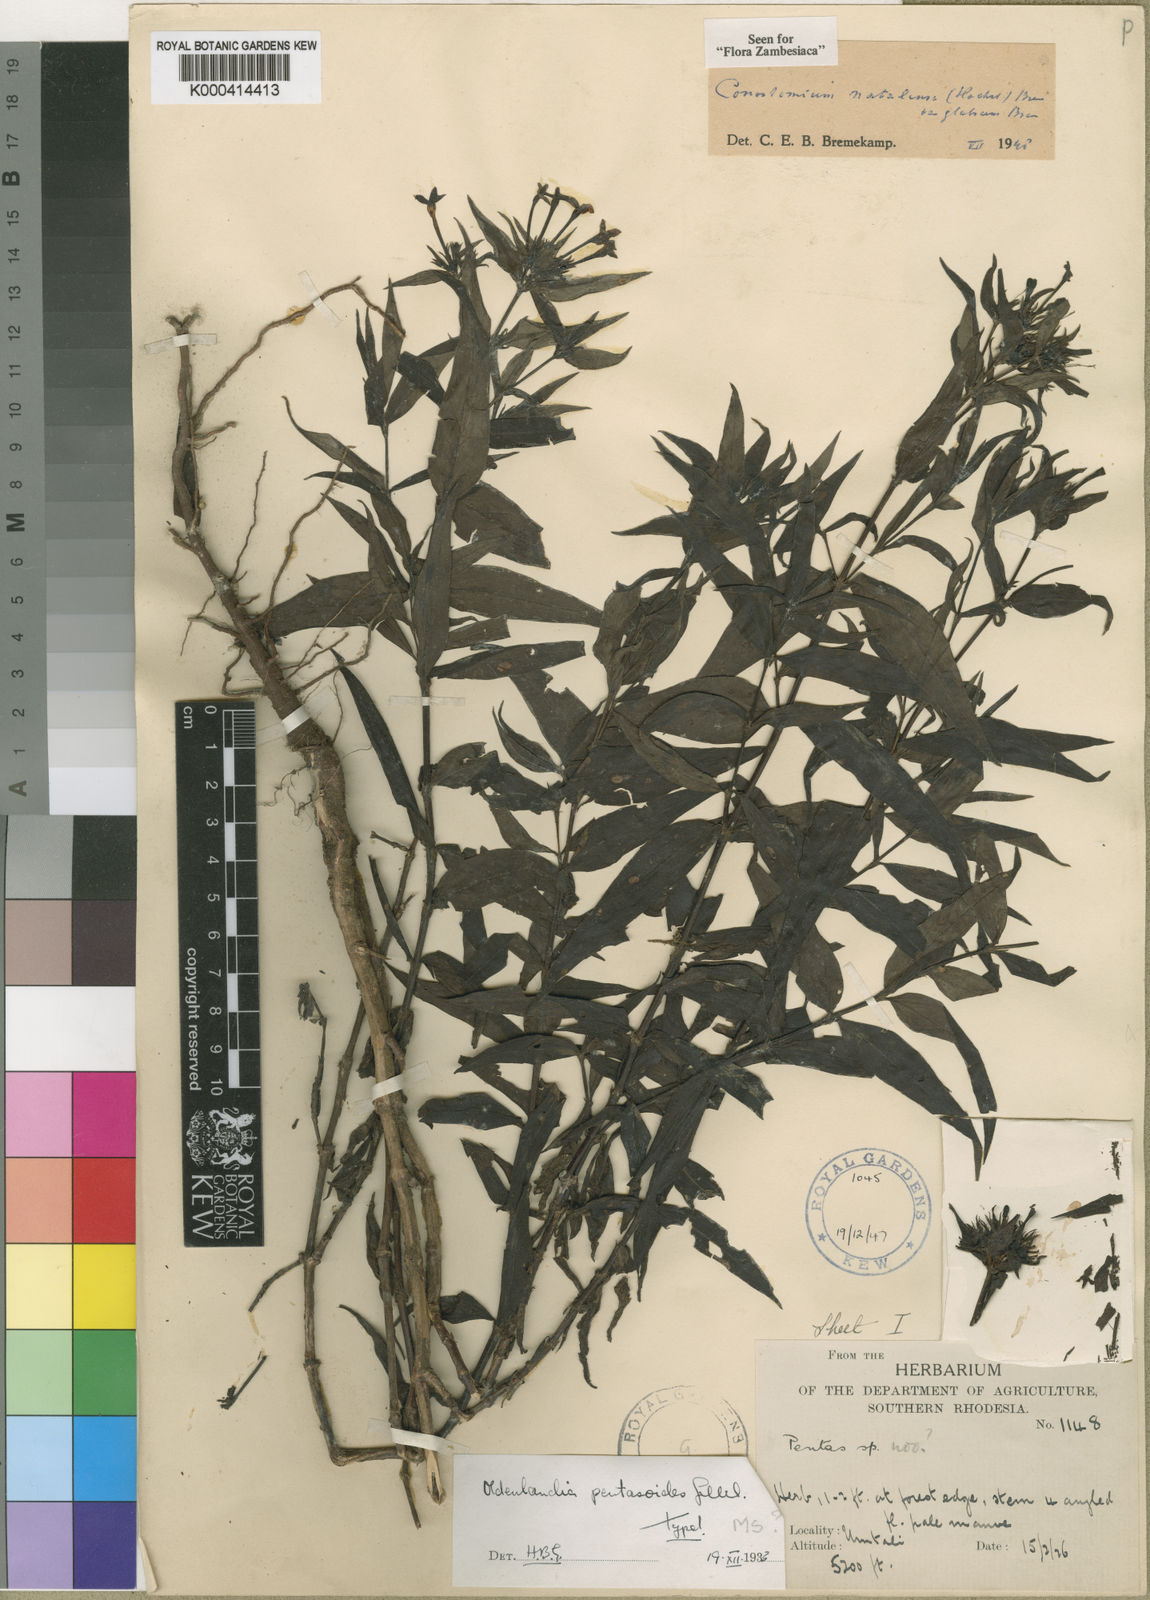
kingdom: Plantae
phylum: Tracheophyta
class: Magnoliopsida
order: Gentianales
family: Rubiaceae
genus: Conostomium
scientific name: Conostomium natalense
